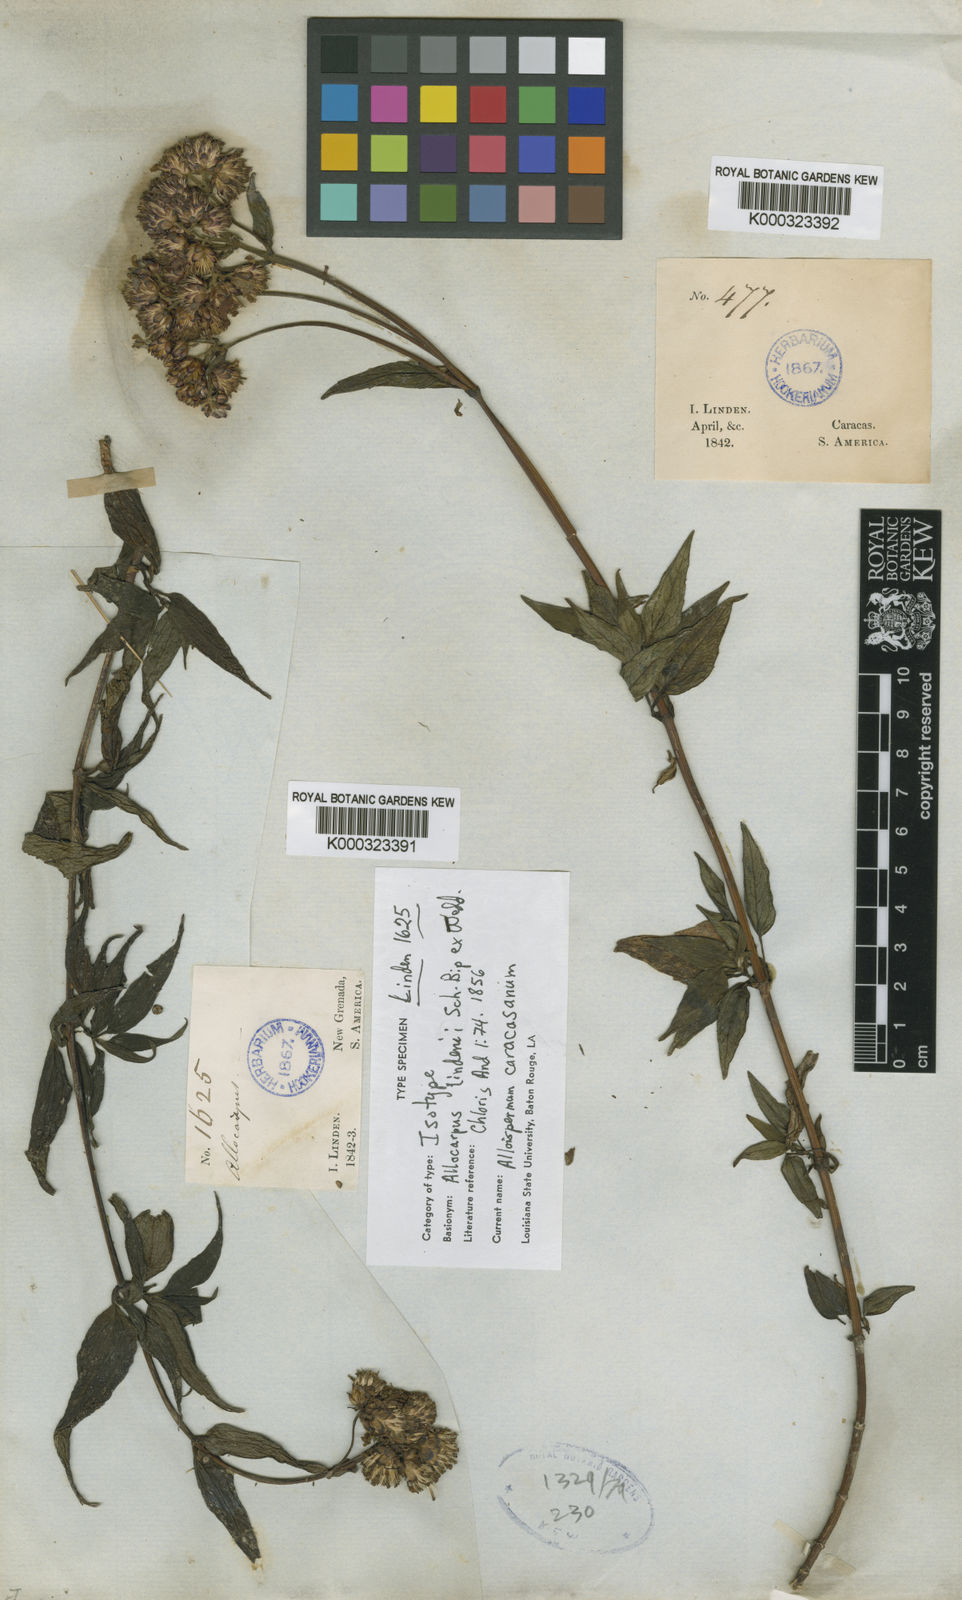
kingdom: Plantae
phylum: Tracheophyta
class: Magnoliopsida
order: Asterales
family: Asteraceae
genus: Alloispermum
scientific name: Alloispermum caracasanum
